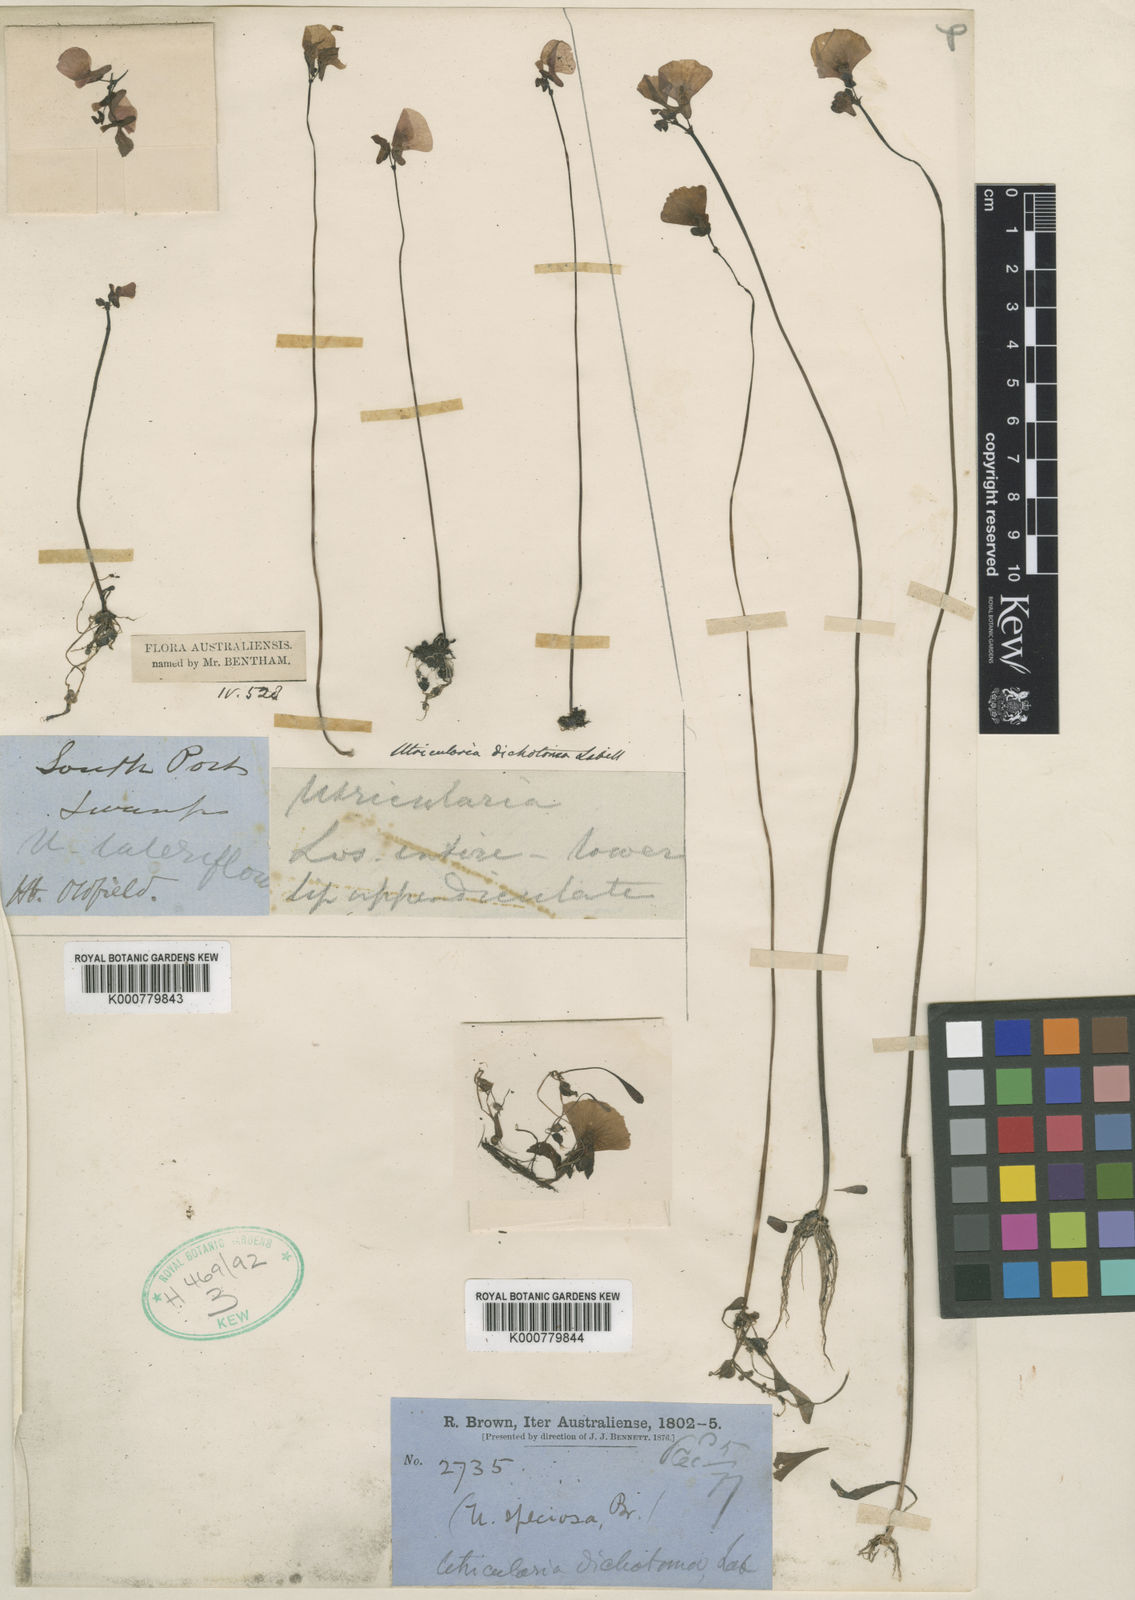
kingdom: Plantae
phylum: Tracheophyta
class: Magnoliopsida
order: Lamiales
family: Lentibulariaceae
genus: Utricularia
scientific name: Utricularia dichotoma
